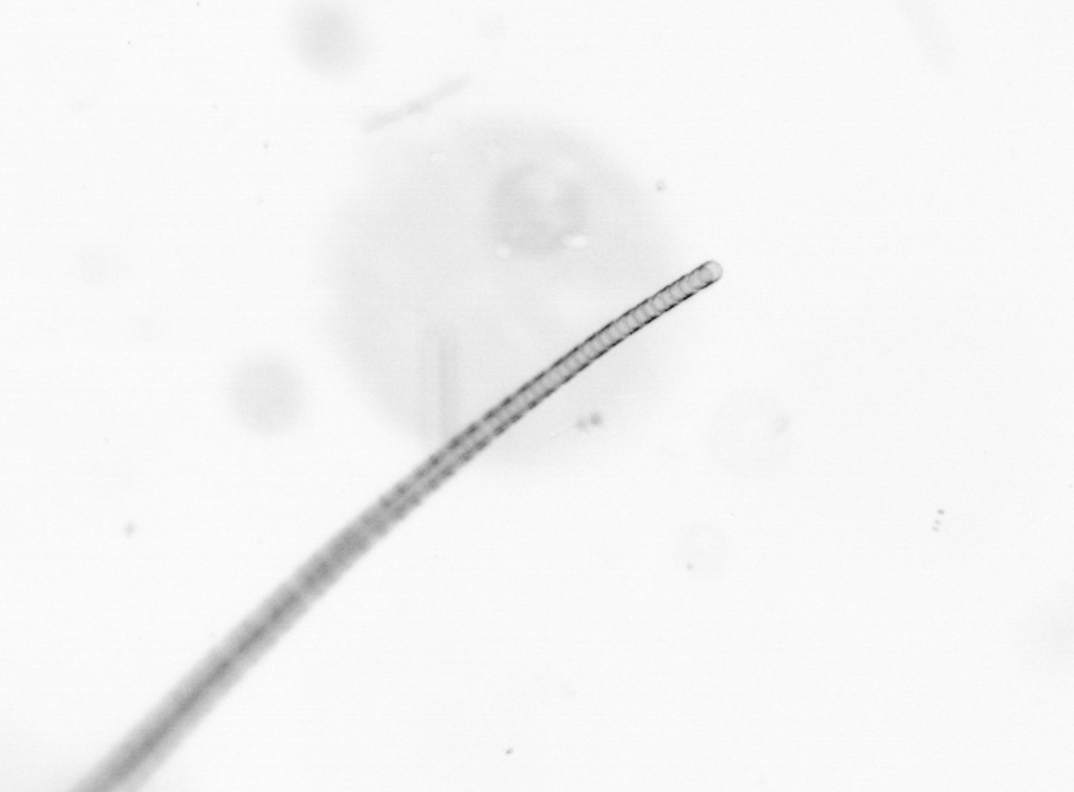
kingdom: Chromista
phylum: Ochrophyta
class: Bacillariophyceae
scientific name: Bacillariophyceae
